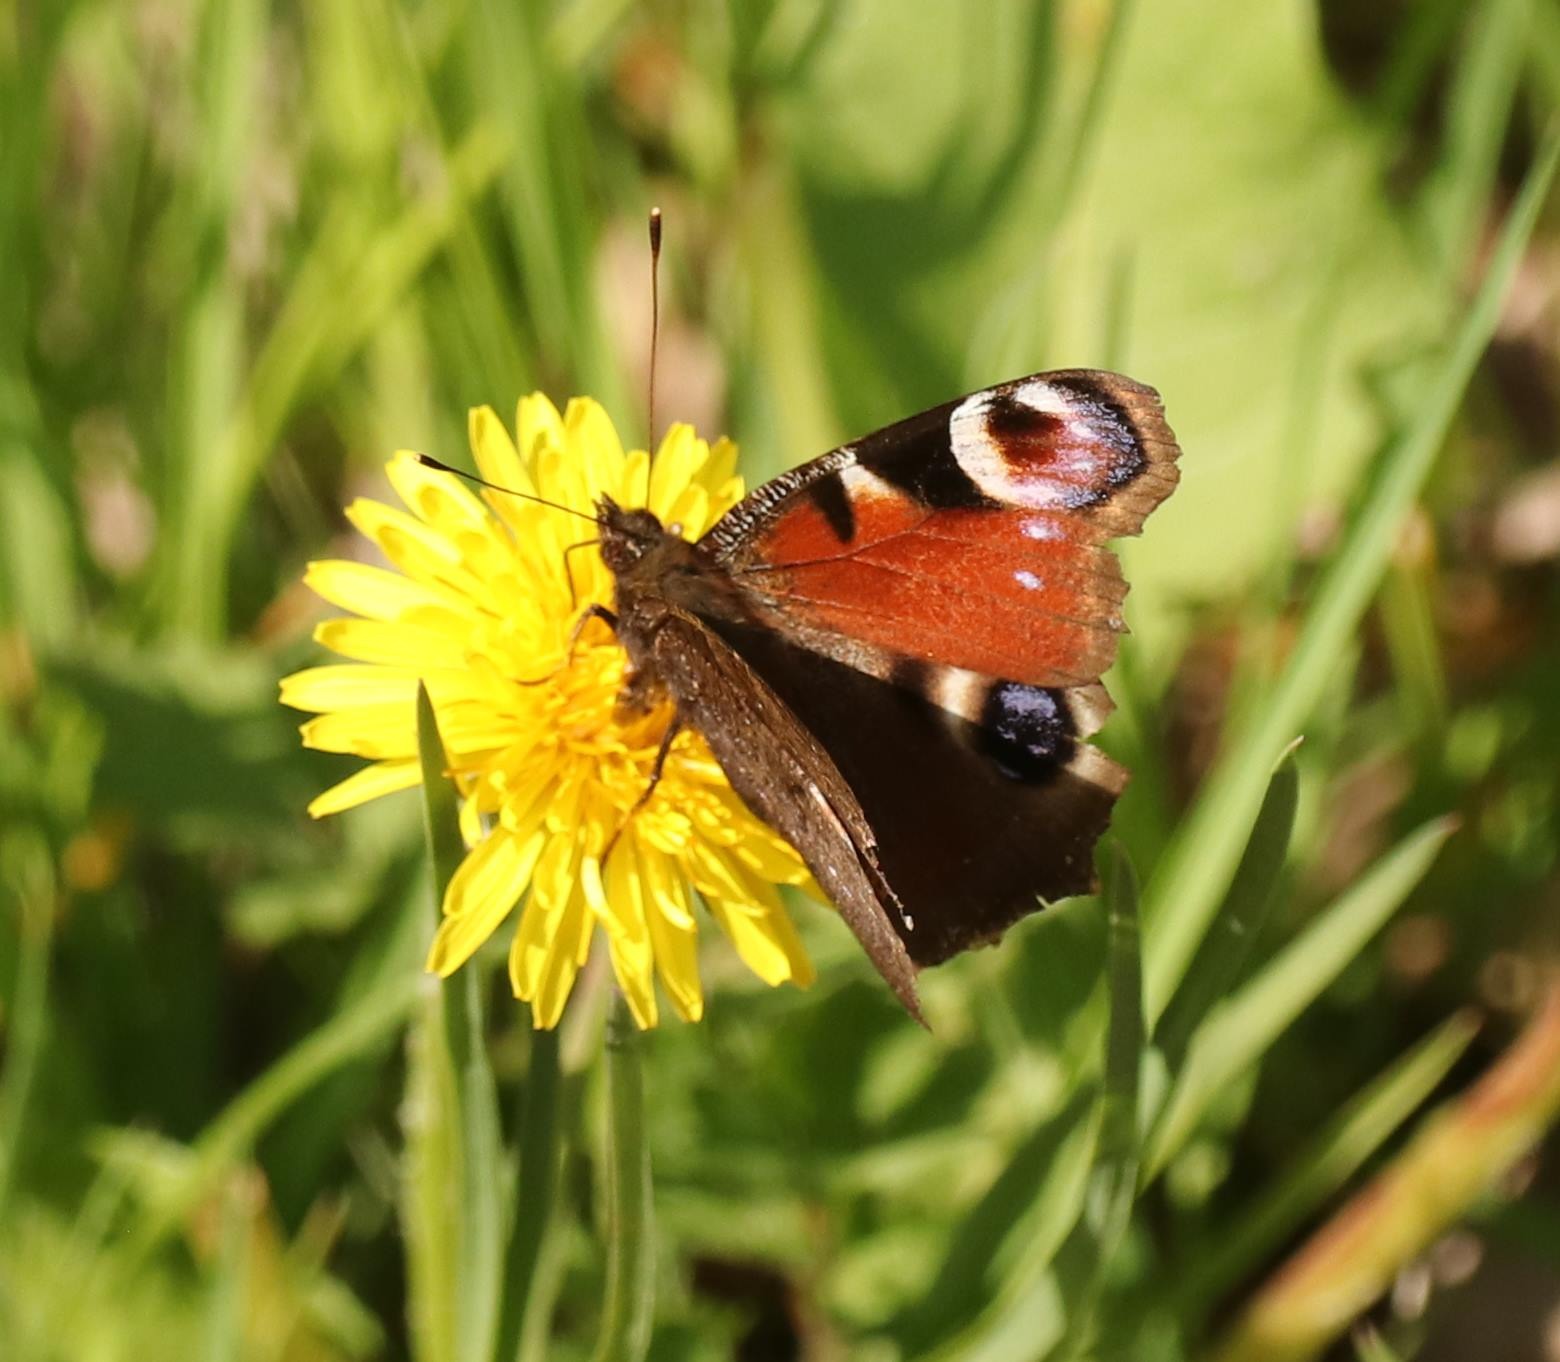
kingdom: Animalia
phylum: Arthropoda
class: Insecta
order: Lepidoptera
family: Nymphalidae
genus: Aglais
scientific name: Aglais io
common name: Dagpåfugleøje
